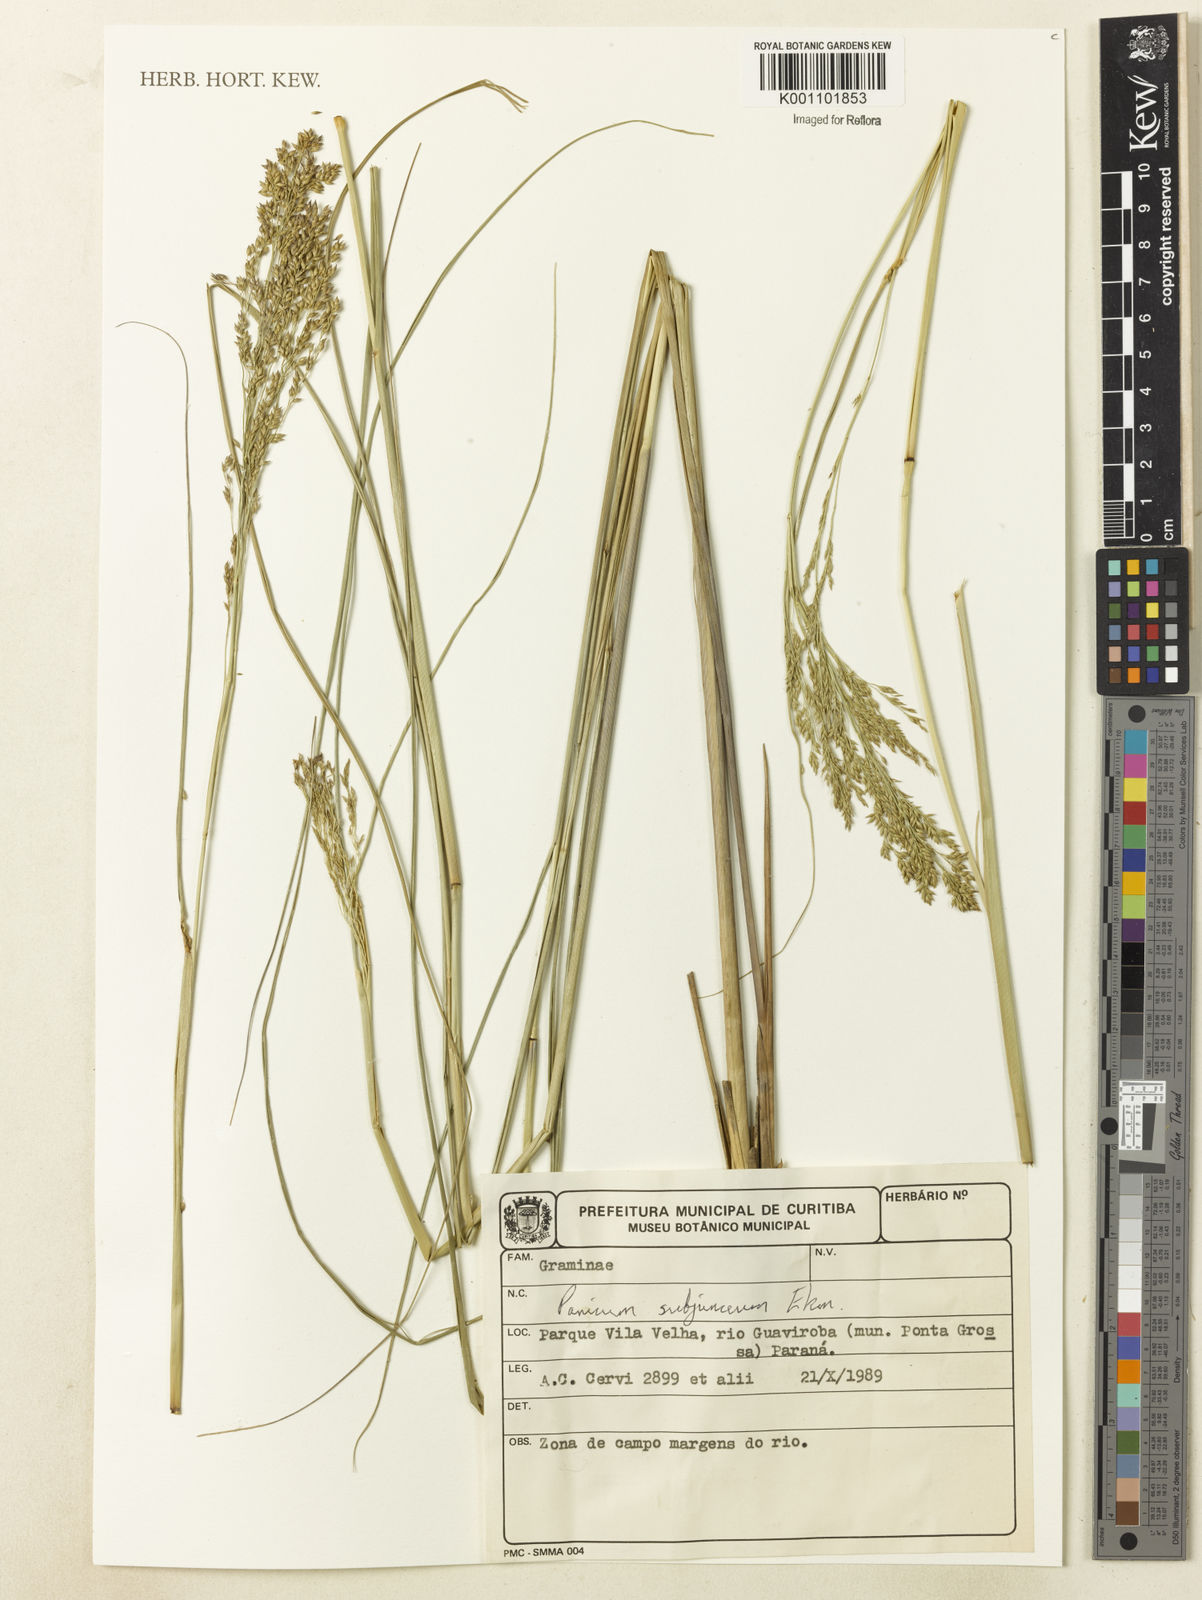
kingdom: Plantae
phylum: Tracheophyta
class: Liliopsida
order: Poales
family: Poaceae
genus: Panicum
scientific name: Panicum glabripes
